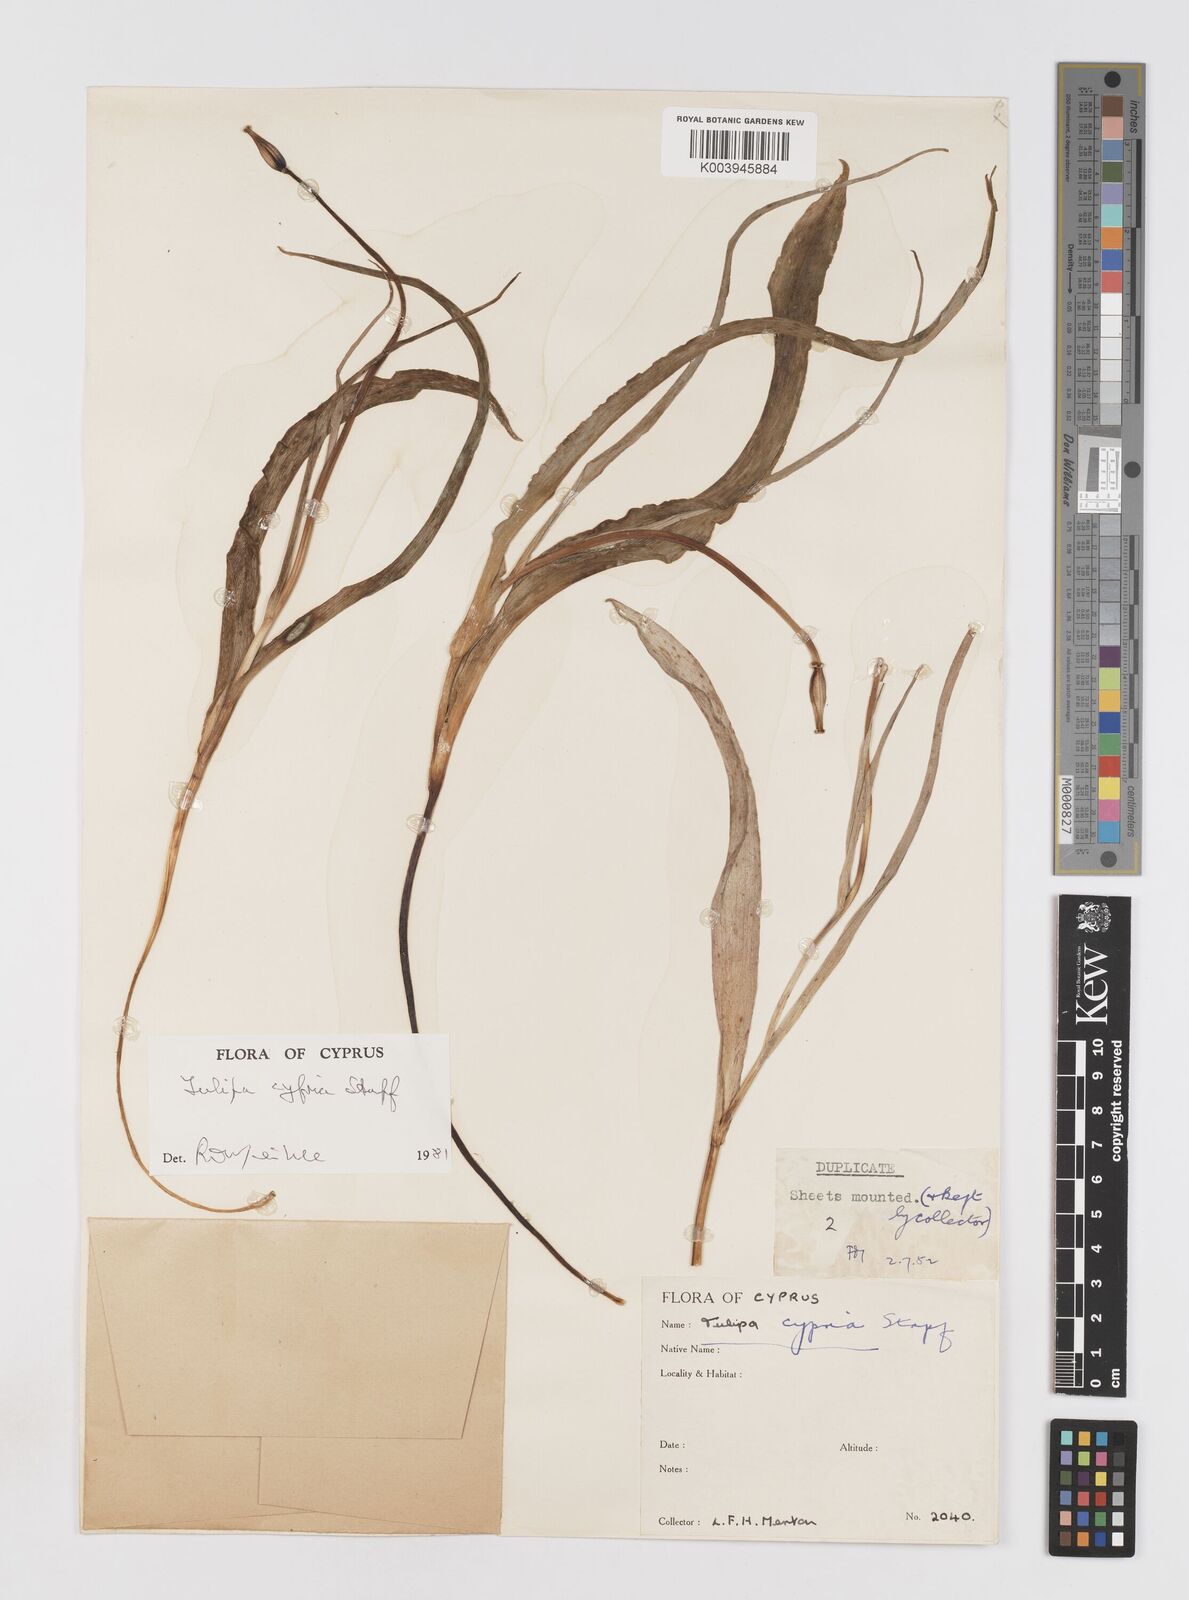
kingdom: Plantae
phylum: Tracheophyta
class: Liliopsida
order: Liliales
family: Liliaceae
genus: Tulipa
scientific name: Tulipa cypria
